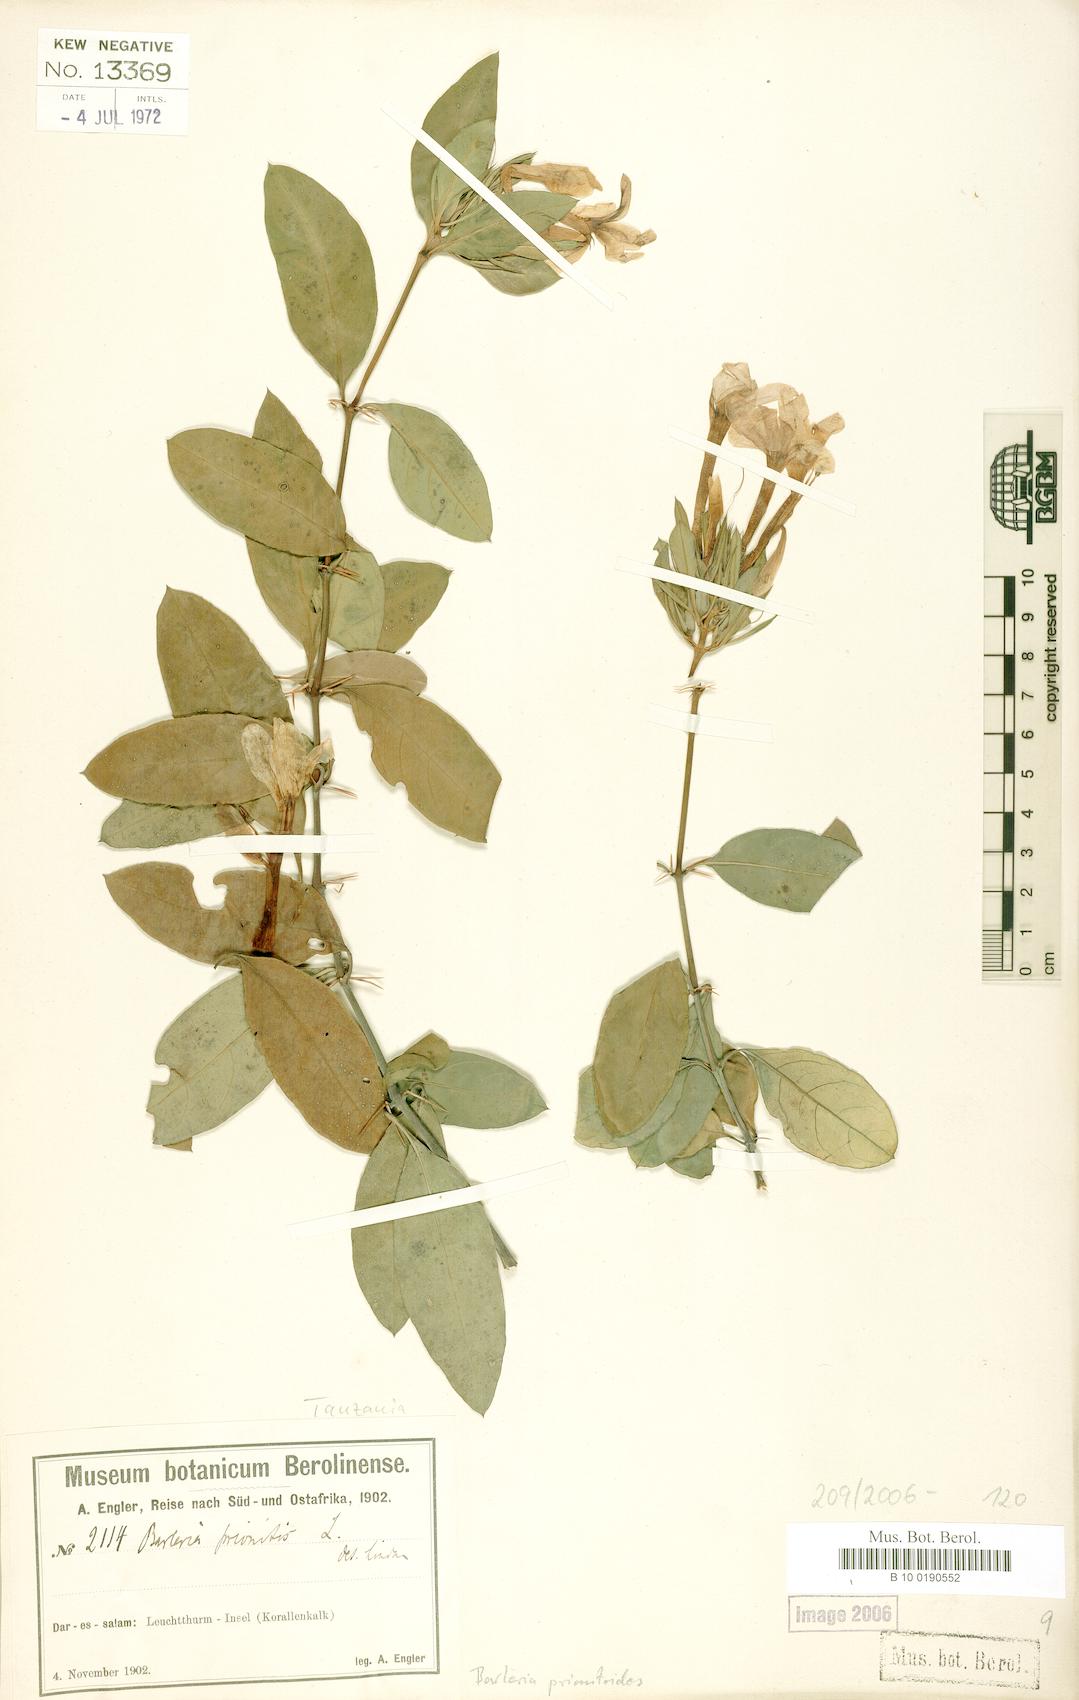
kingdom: Plantae
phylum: Tracheophyta
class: Magnoliopsida
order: Lamiales
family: Acanthaceae
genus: Barleria
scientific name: Barleria prionitis
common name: Barleria
